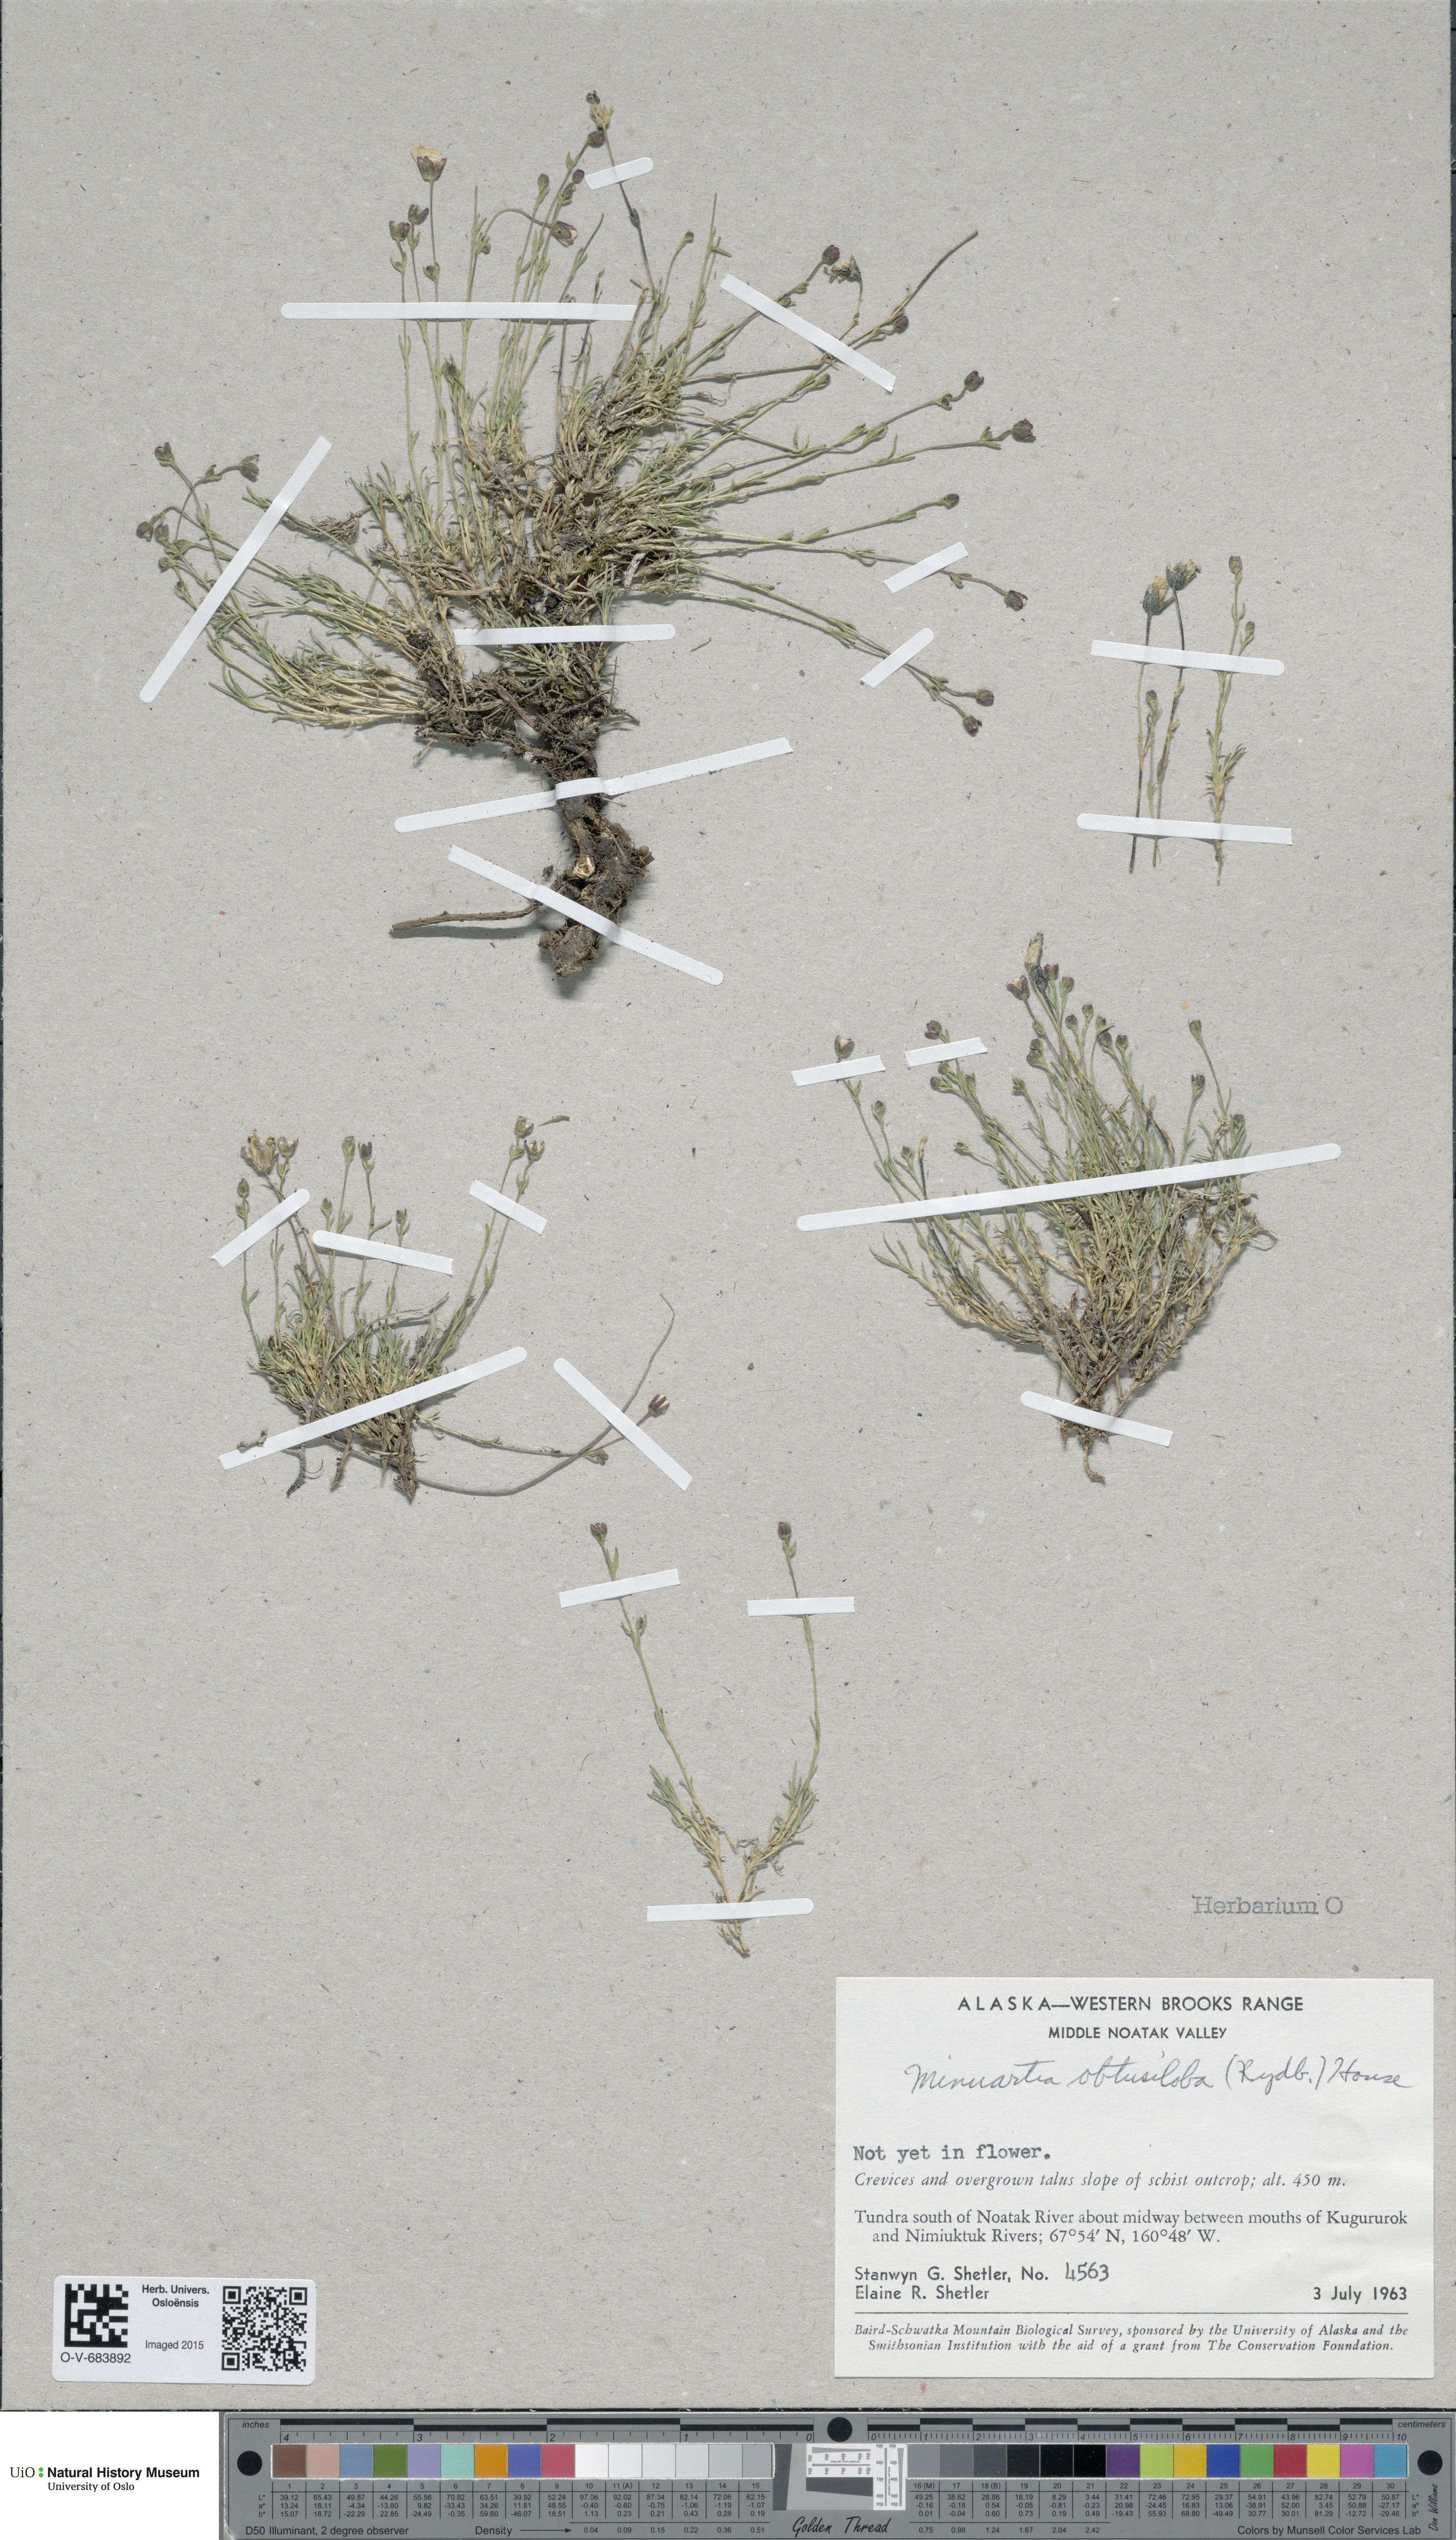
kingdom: Plantae
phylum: Tracheophyta
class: Magnoliopsida
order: Caryophyllales
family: Caryophyllaceae
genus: Cherleria
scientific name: Cherleria obtusiloba
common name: Alpine stitchwort
